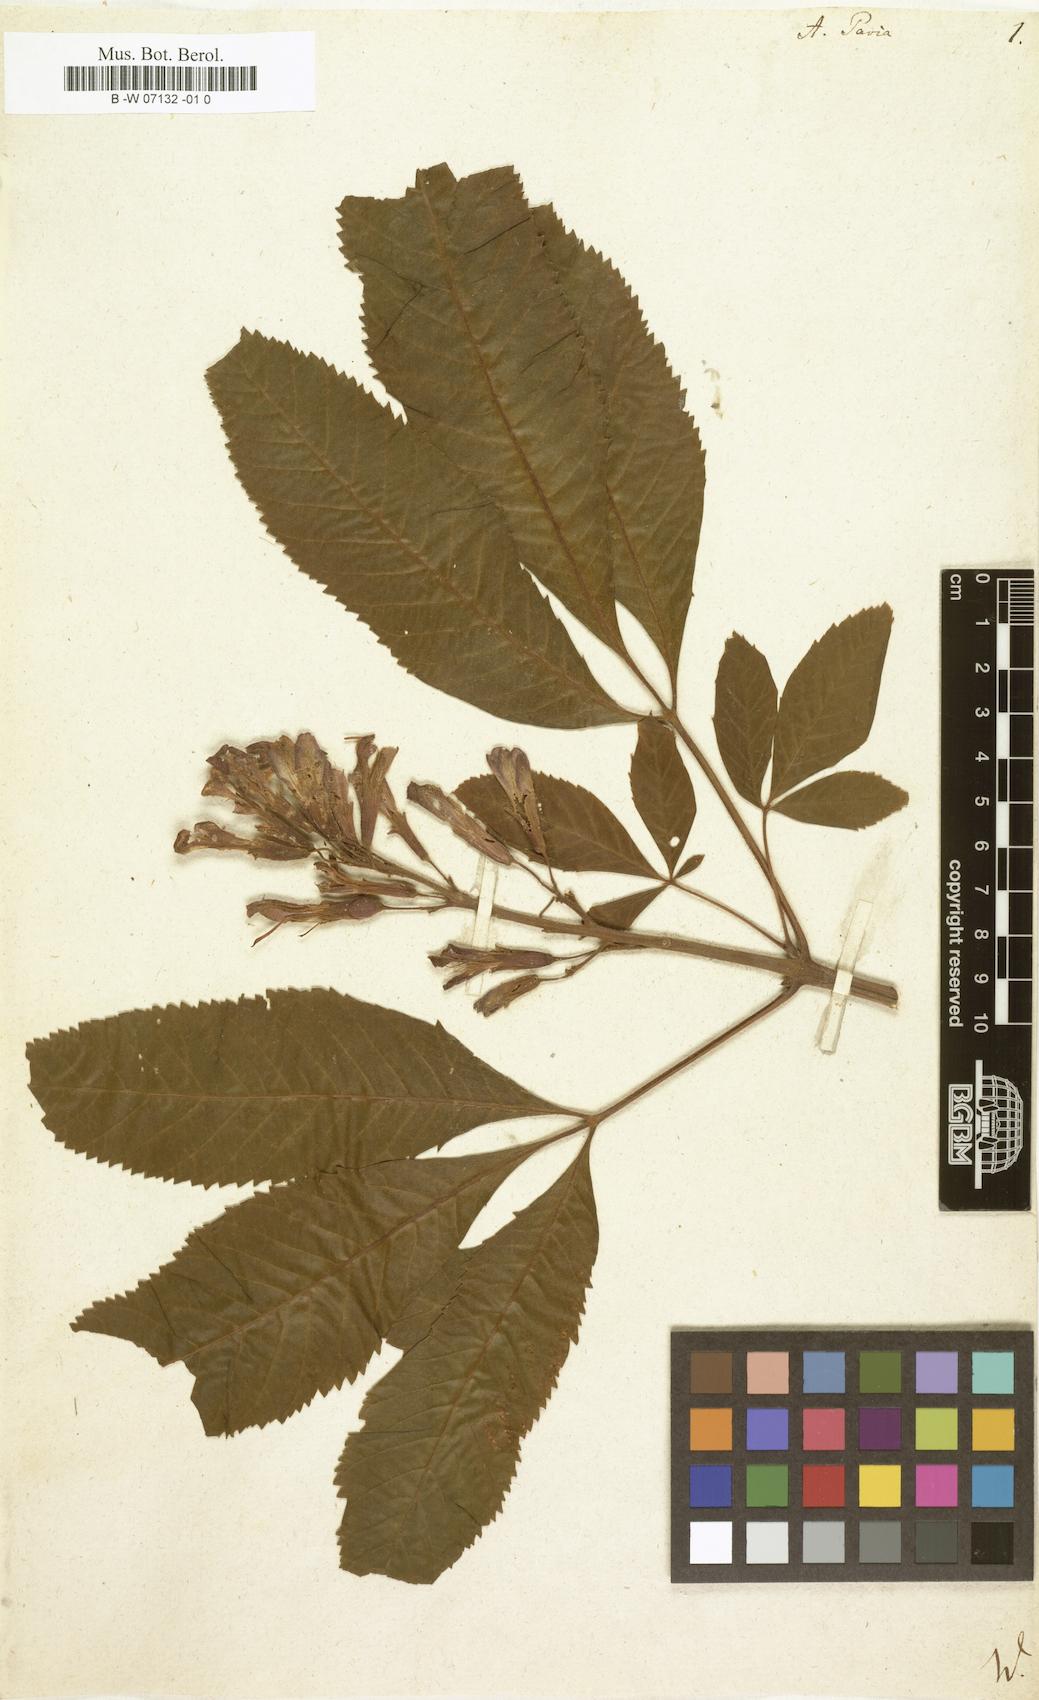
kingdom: Plantae
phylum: Tracheophyta
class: Magnoliopsida
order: Sapindales
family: Sapindaceae
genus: Aesculus
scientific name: Aesculus pavia
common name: Red buckeye
